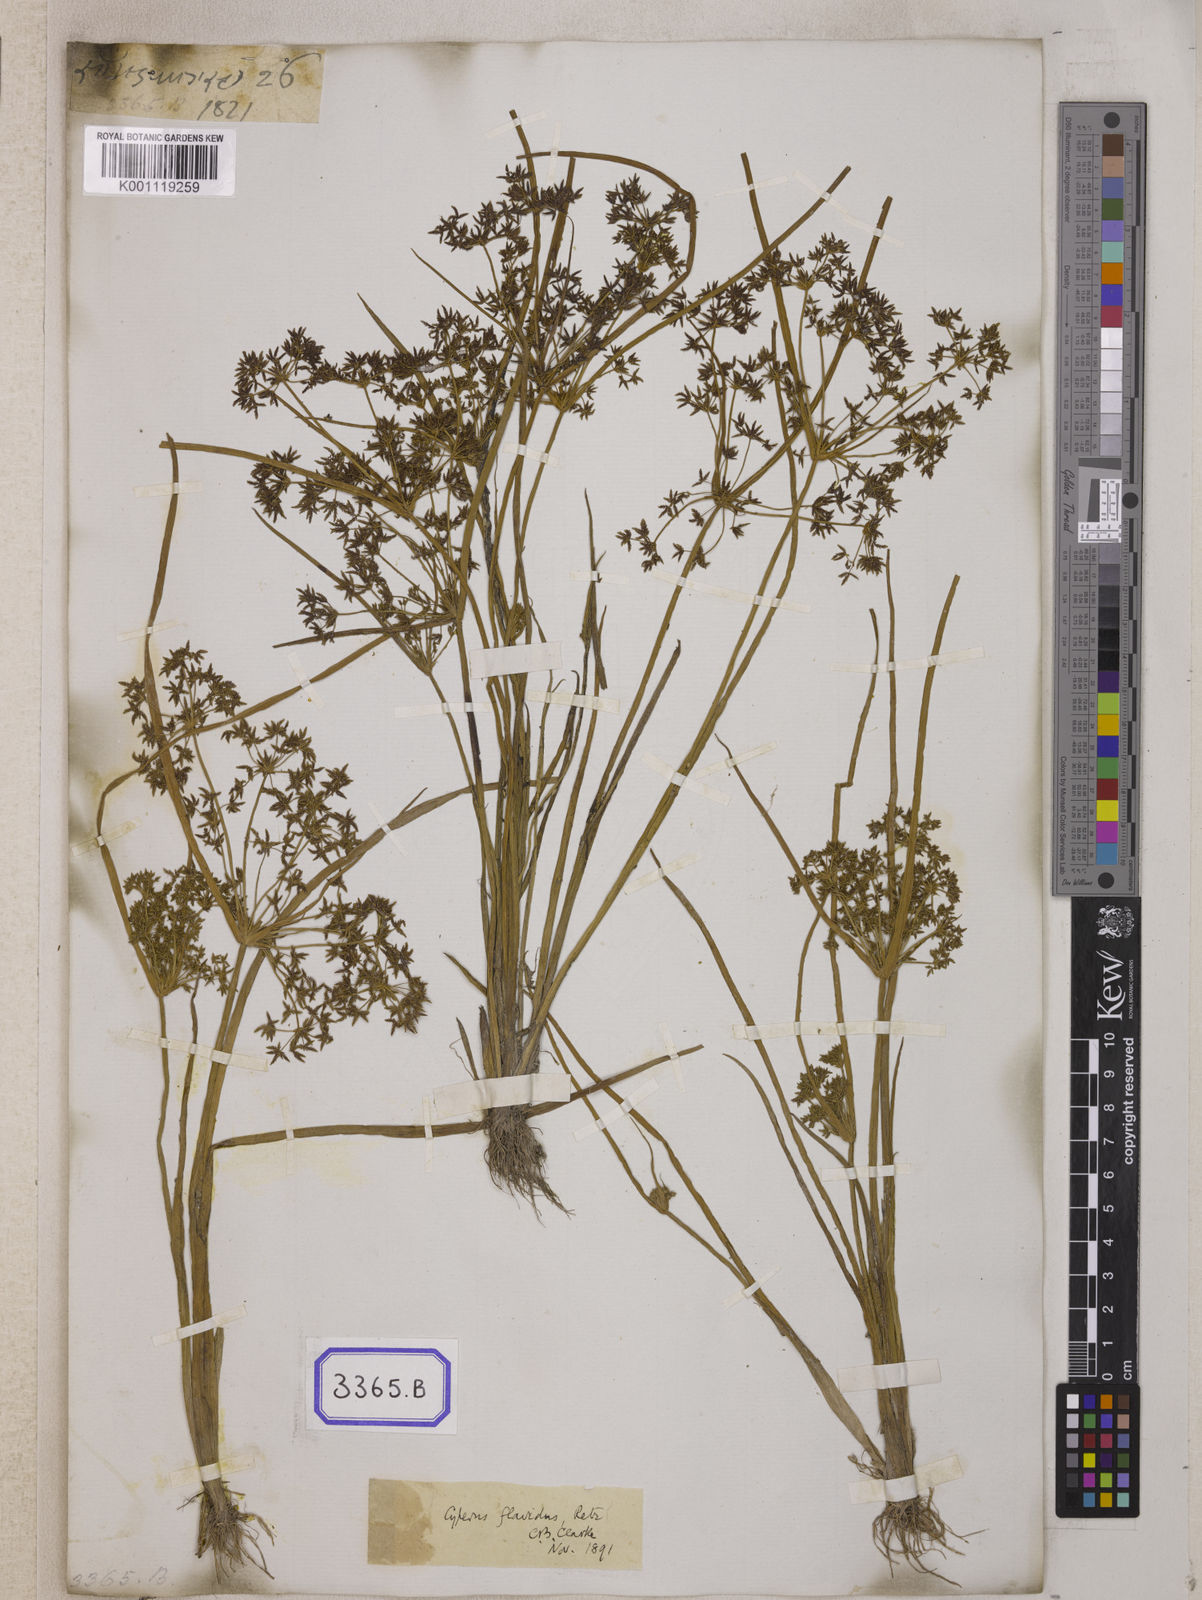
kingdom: Plantae
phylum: Tracheophyta
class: Liliopsida
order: Poales
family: Cyperaceae
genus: Cyperus
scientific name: Cyperus
